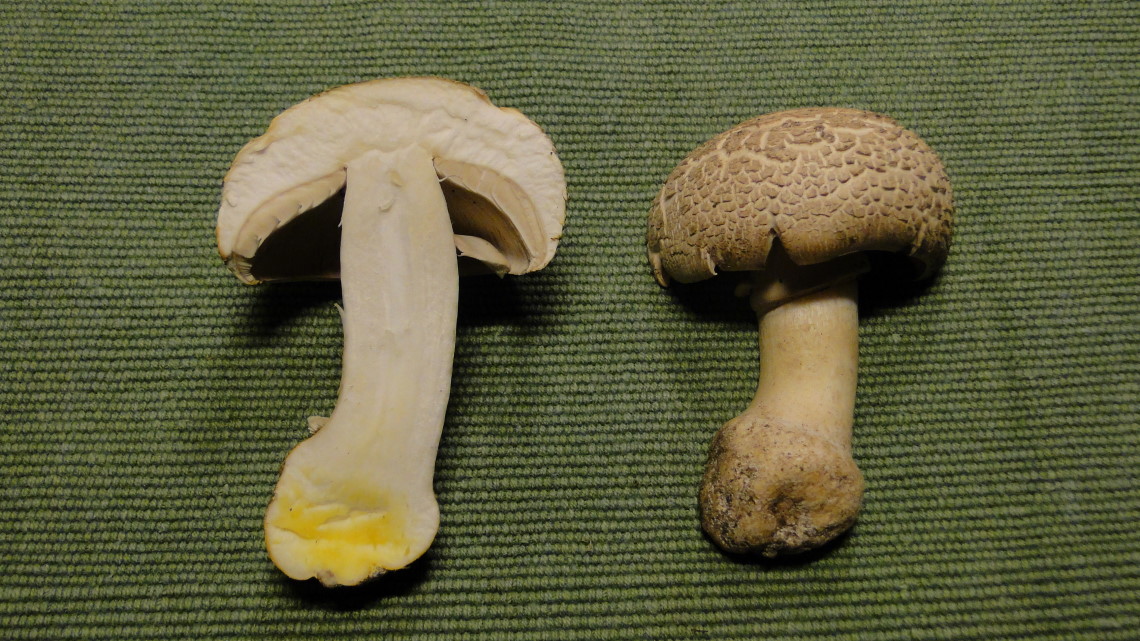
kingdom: Fungi
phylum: Basidiomycota
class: Agaricomycetes
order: Agaricales
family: Agaricaceae
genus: Agaricus
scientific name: Agaricus xanthodermus
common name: karbol-champignon
